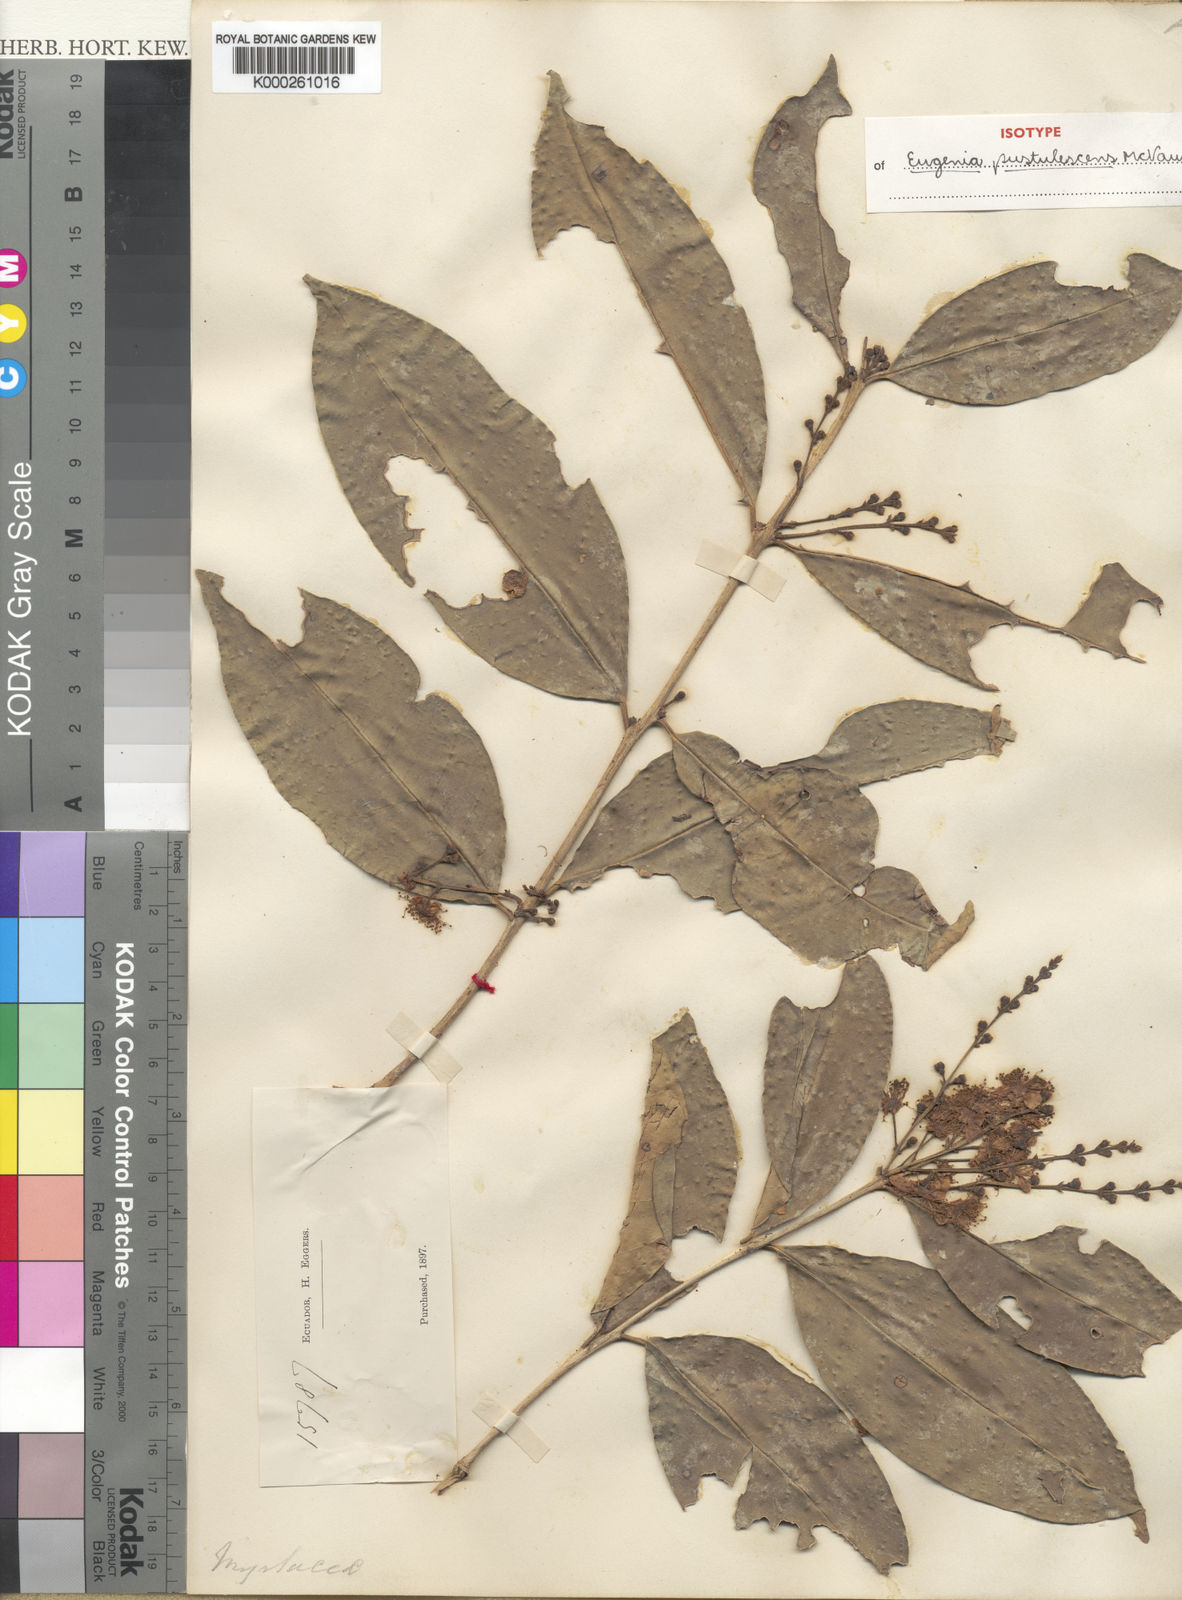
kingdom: Plantae
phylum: Tracheophyta
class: Magnoliopsida
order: Myrtales
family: Myrtaceae
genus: Eugenia
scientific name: Eugenia pustulescens
